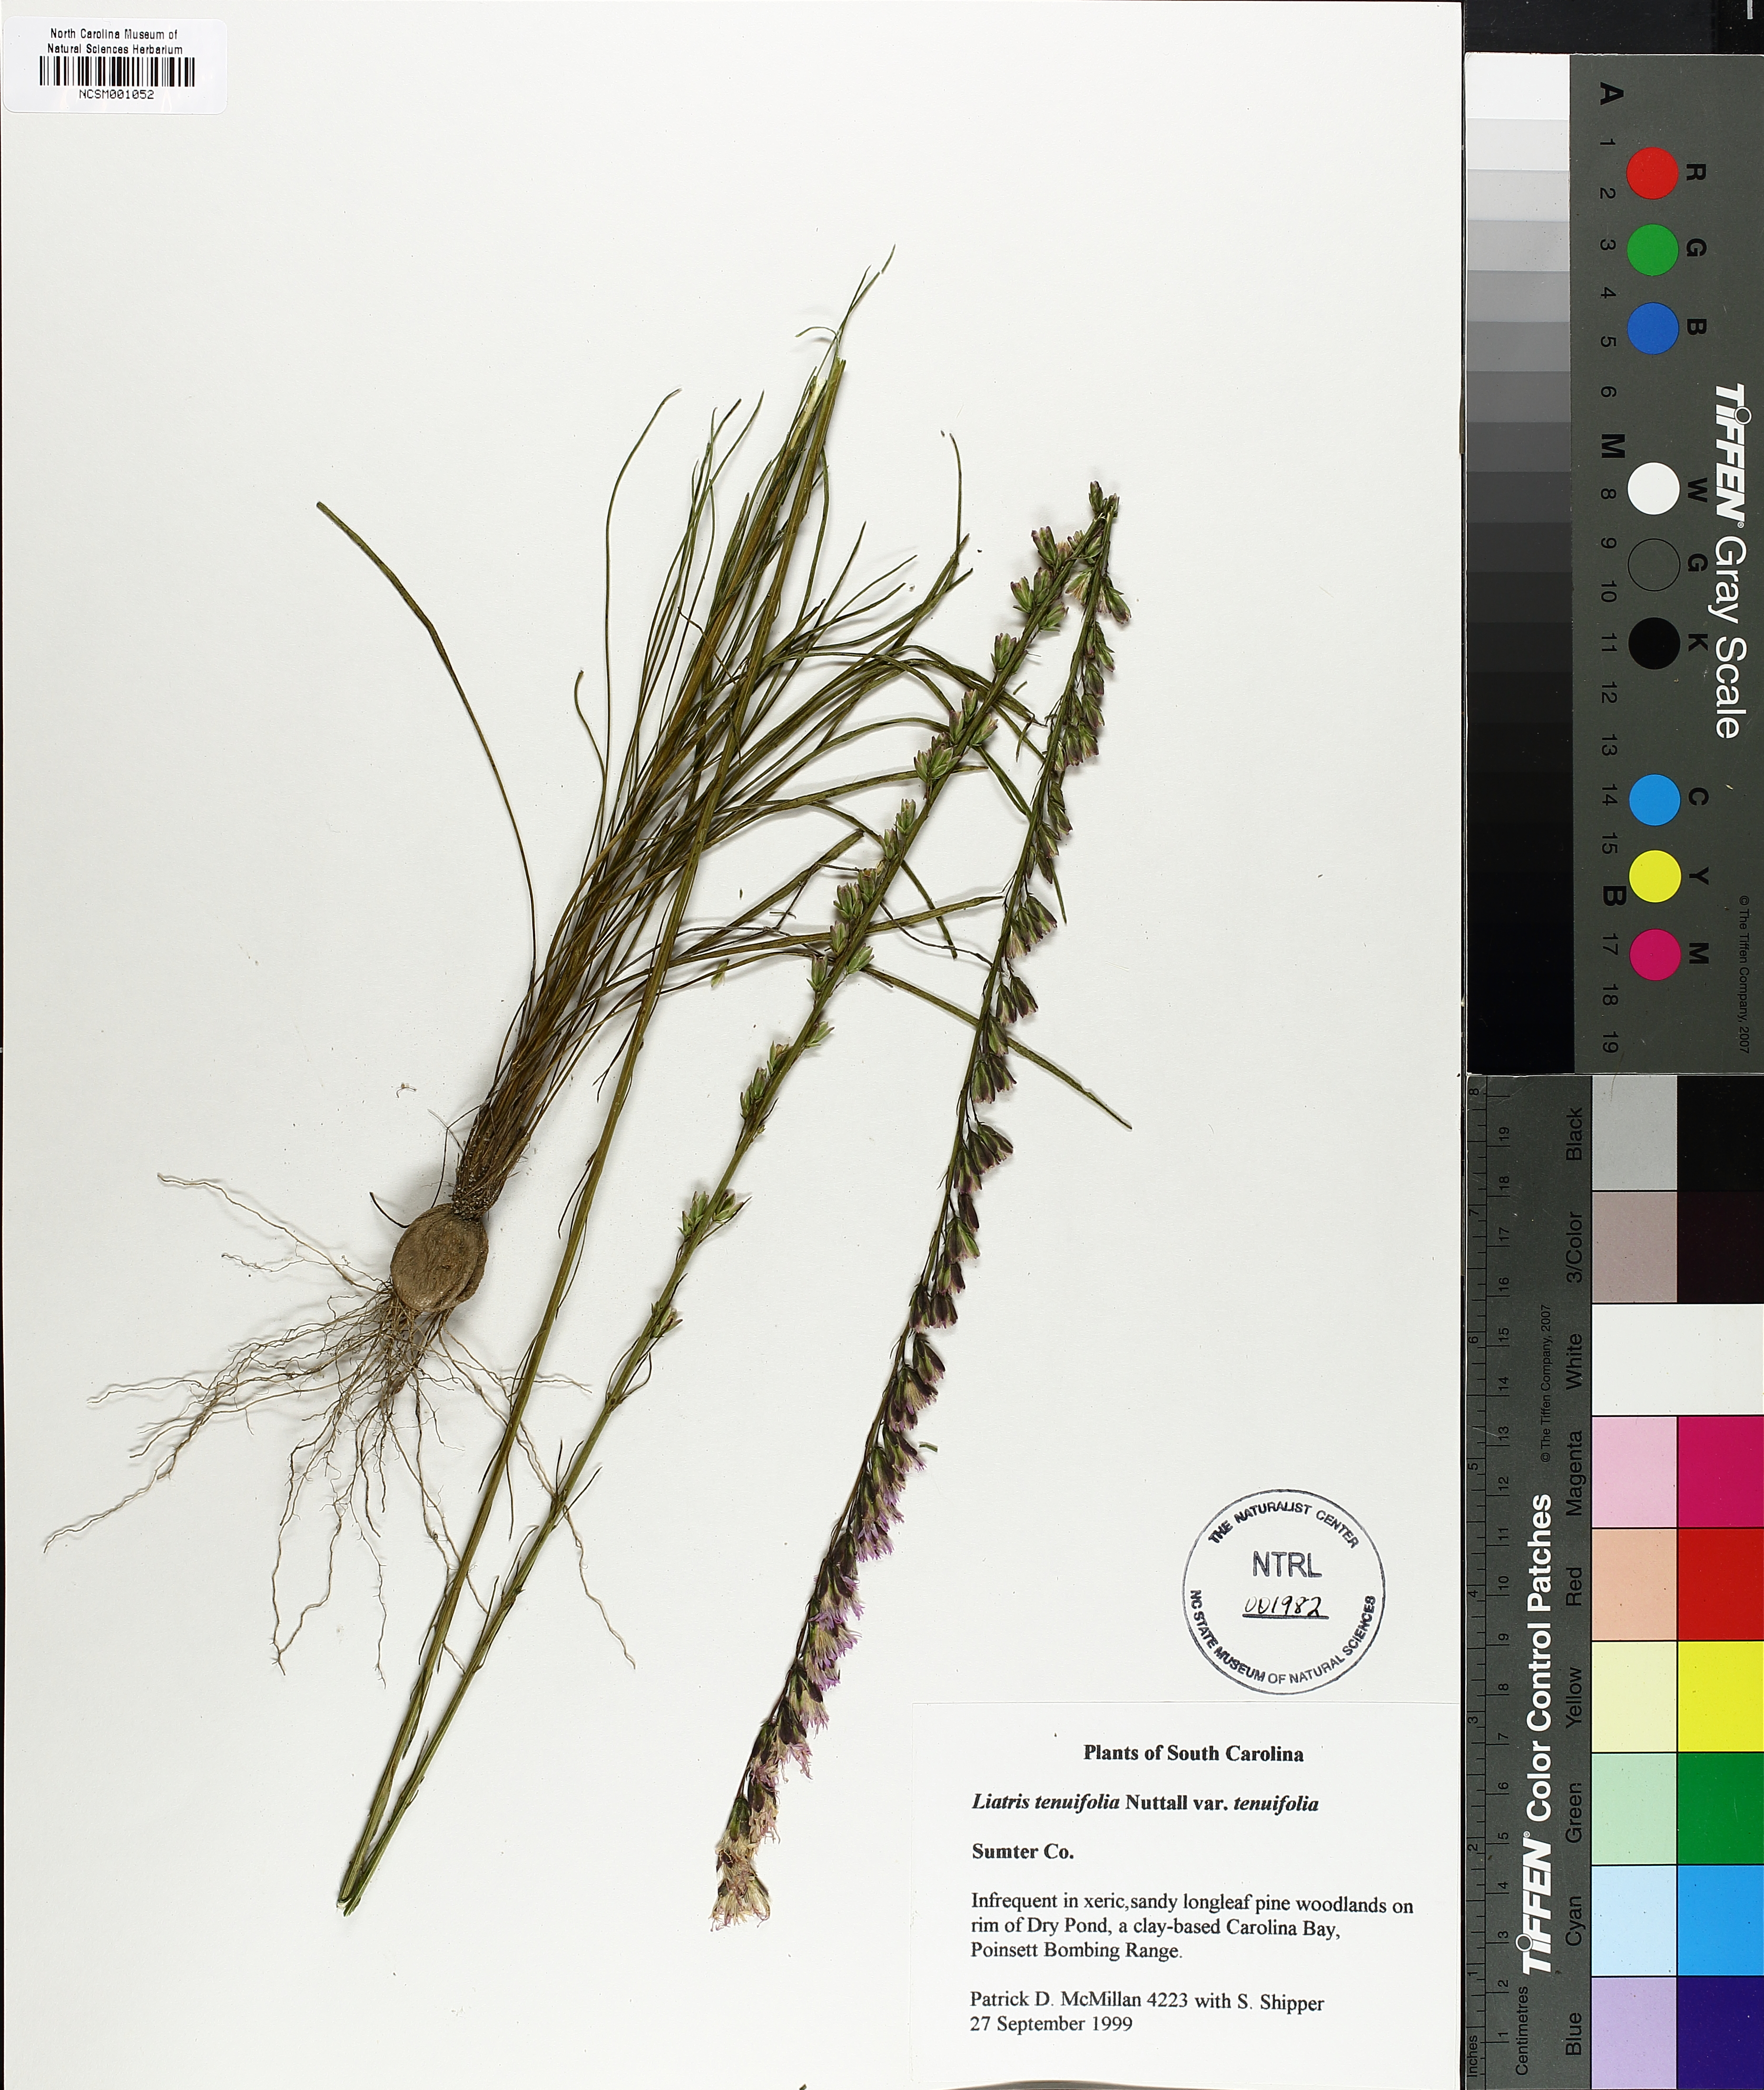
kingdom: Plantae
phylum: Tracheophyta
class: Magnoliopsida
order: Asterales
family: Asteraceae
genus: Liatris
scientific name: Liatris tenuifolia
